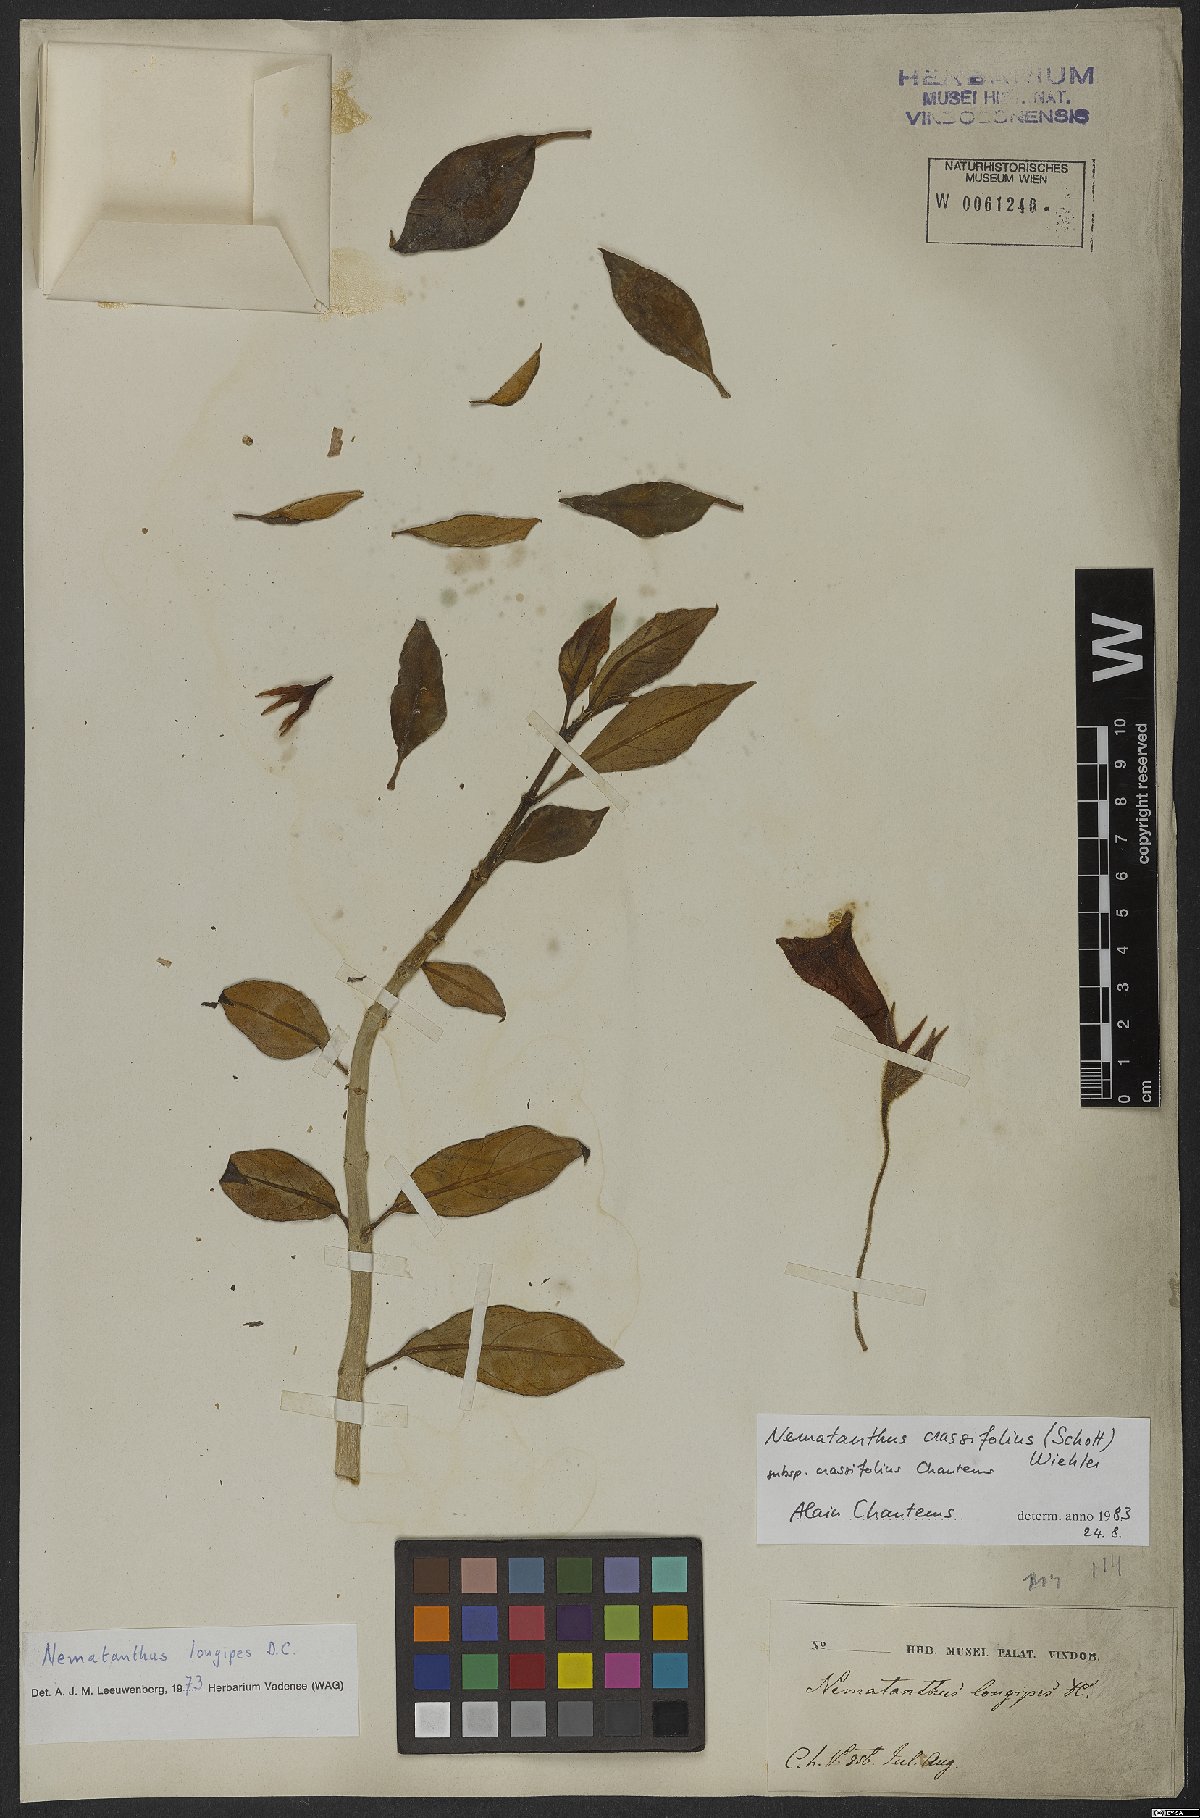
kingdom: Plantae
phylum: Tracheophyta
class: Magnoliopsida
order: Lamiales
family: Gesneriaceae
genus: Nematanthus
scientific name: Nematanthus crassifolius
